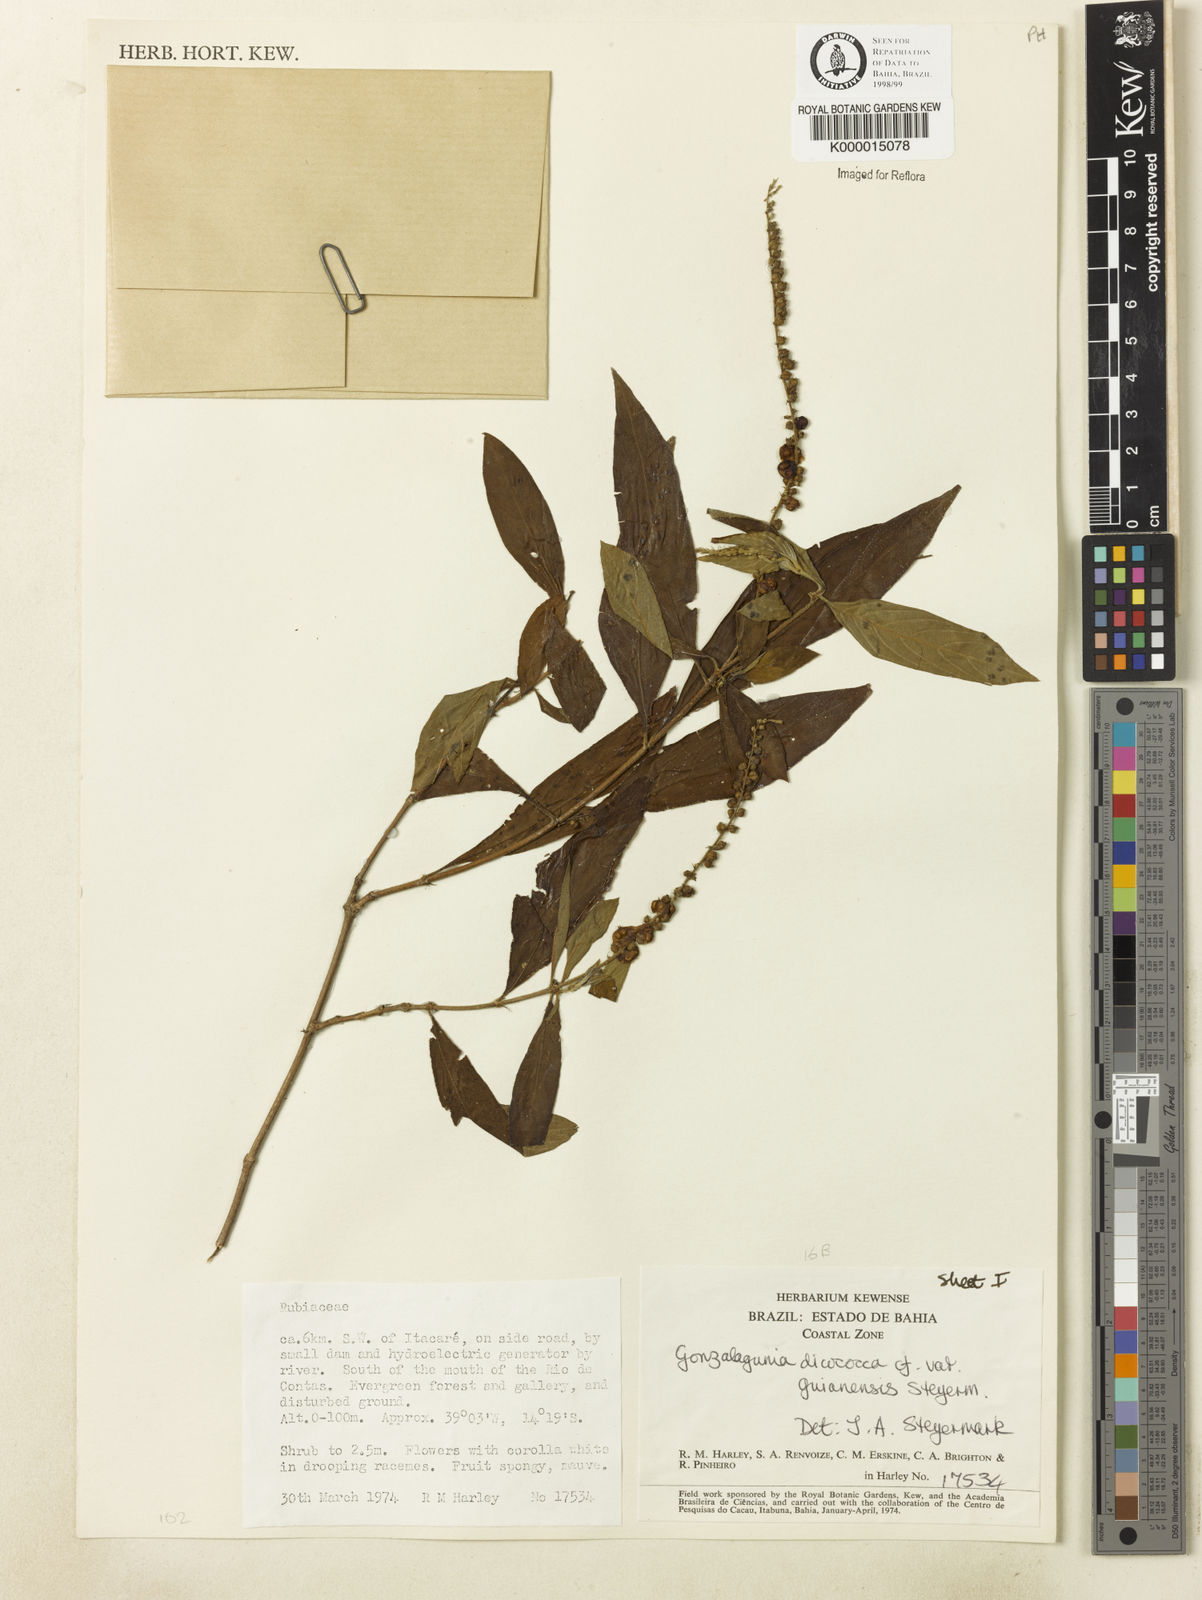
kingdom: Plantae
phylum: Tracheophyta
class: Magnoliopsida
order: Gentianales
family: Rubiaceae
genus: Gonzalagunia
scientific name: Gonzalagunia dicocca
